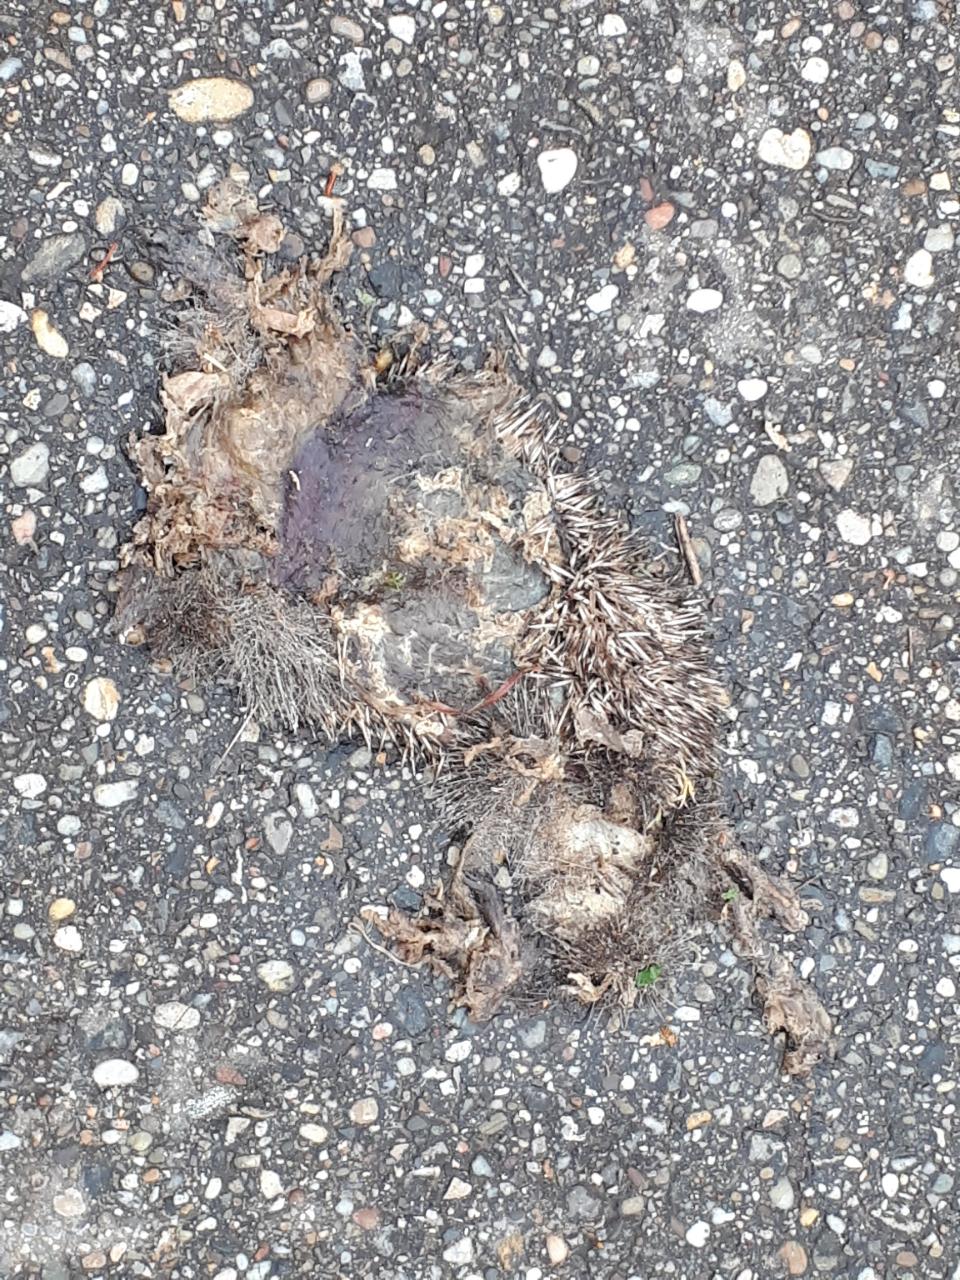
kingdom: Animalia
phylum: Chordata
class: Mammalia
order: Erinaceomorpha
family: Erinaceidae
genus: Erinaceus
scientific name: Erinaceus
